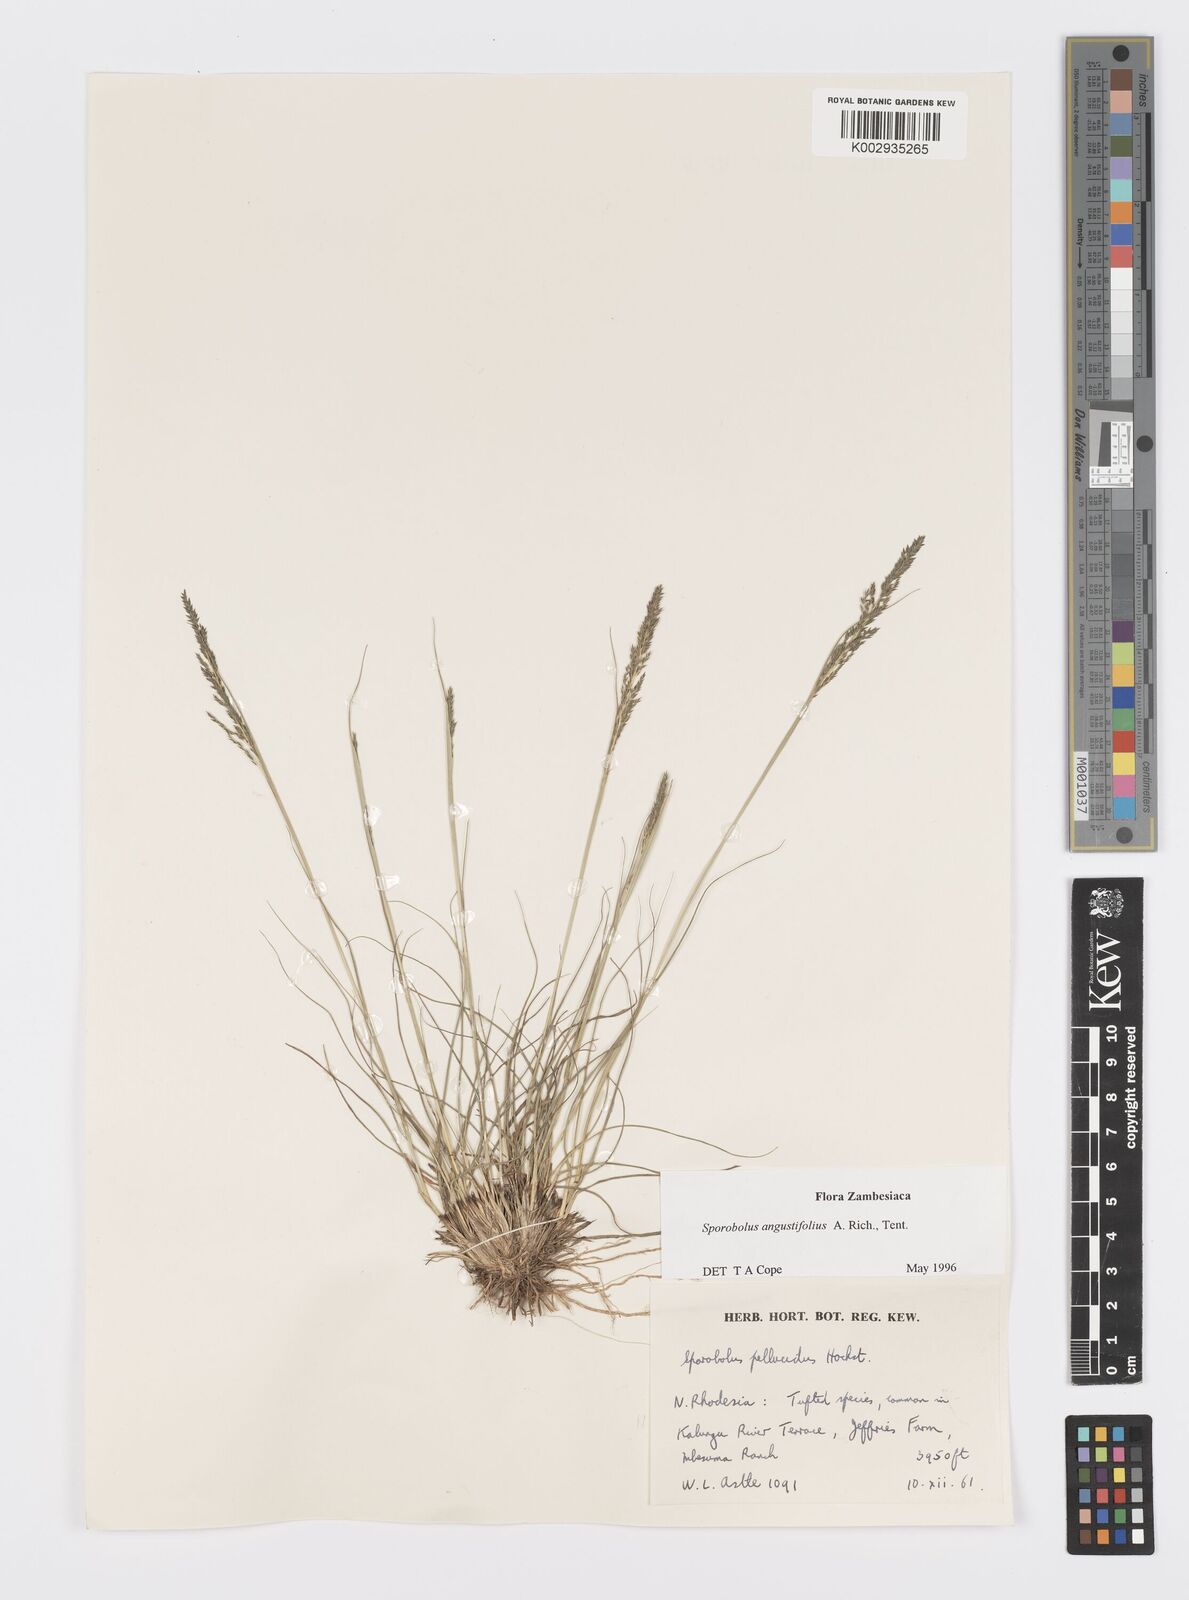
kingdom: Plantae
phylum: Tracheophyta
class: Liliopsida
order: Poales
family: Poaceae
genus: Sporobolus
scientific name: Sporobolus angustifolius
